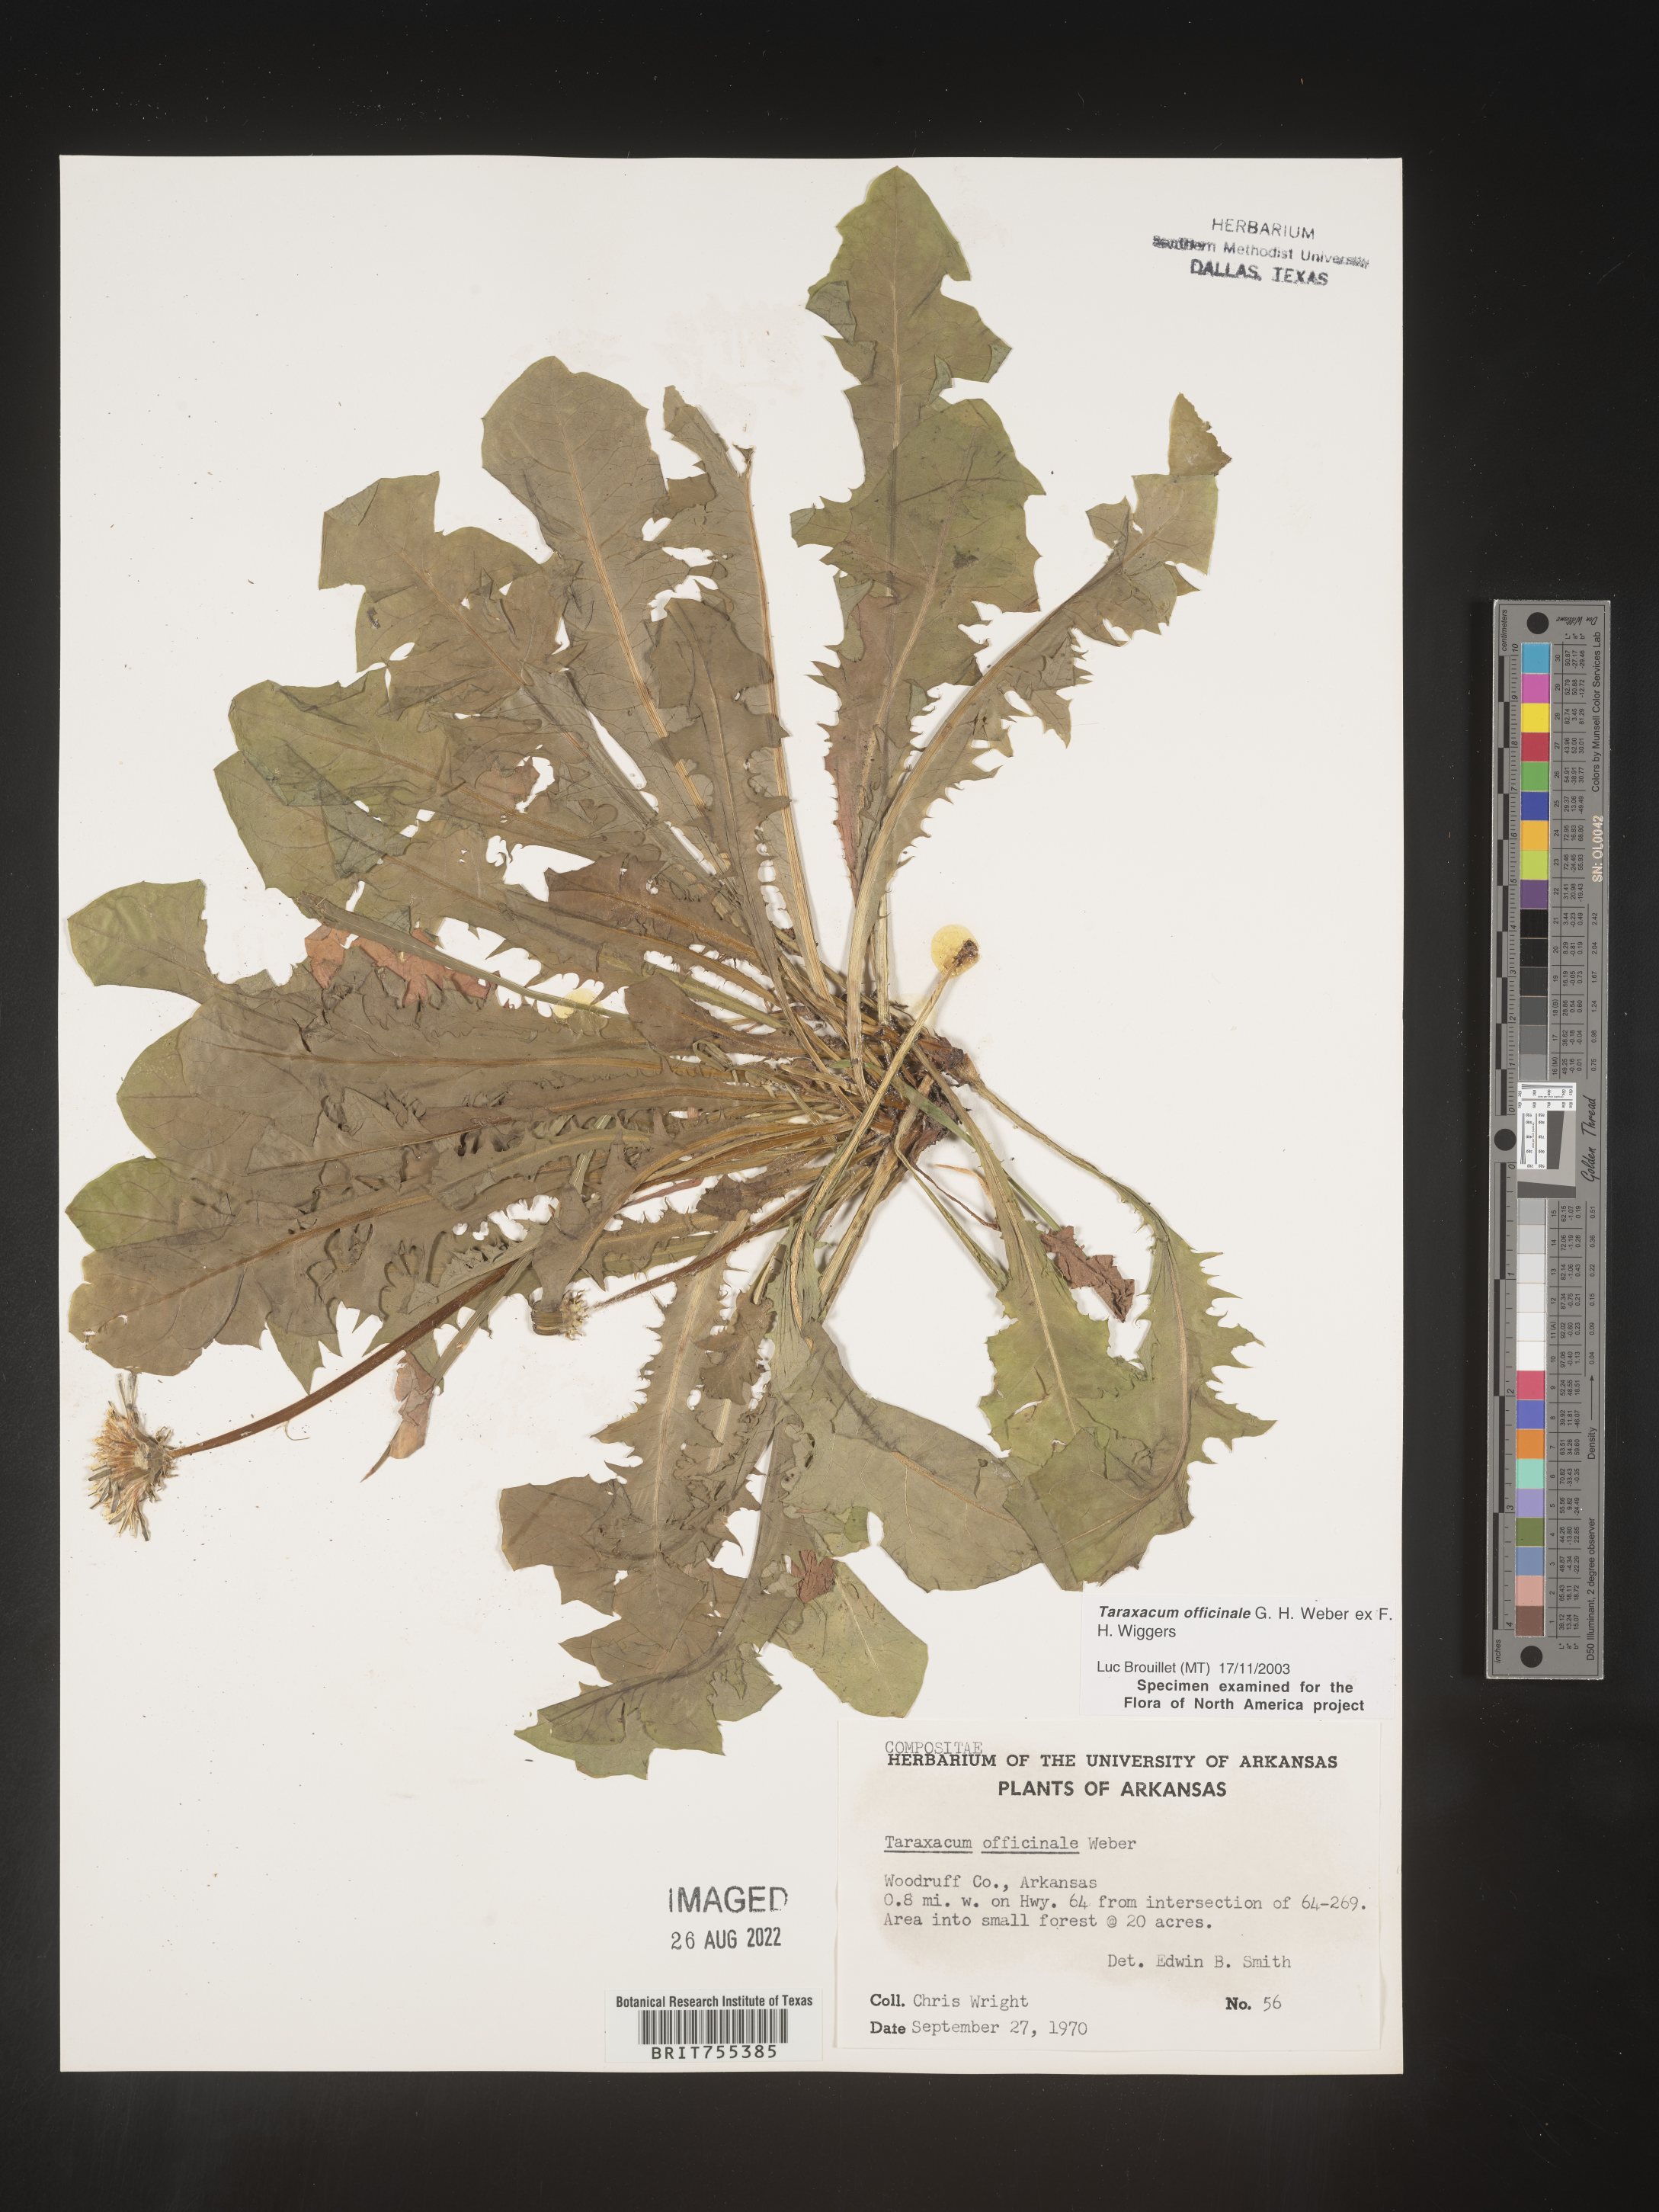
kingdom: Plantae
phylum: Tracheophyta
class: Magnoliopsida
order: Asterales
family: Asteraceae
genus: Taraxacum
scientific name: Taraxacum officinale
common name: Common dandelion
